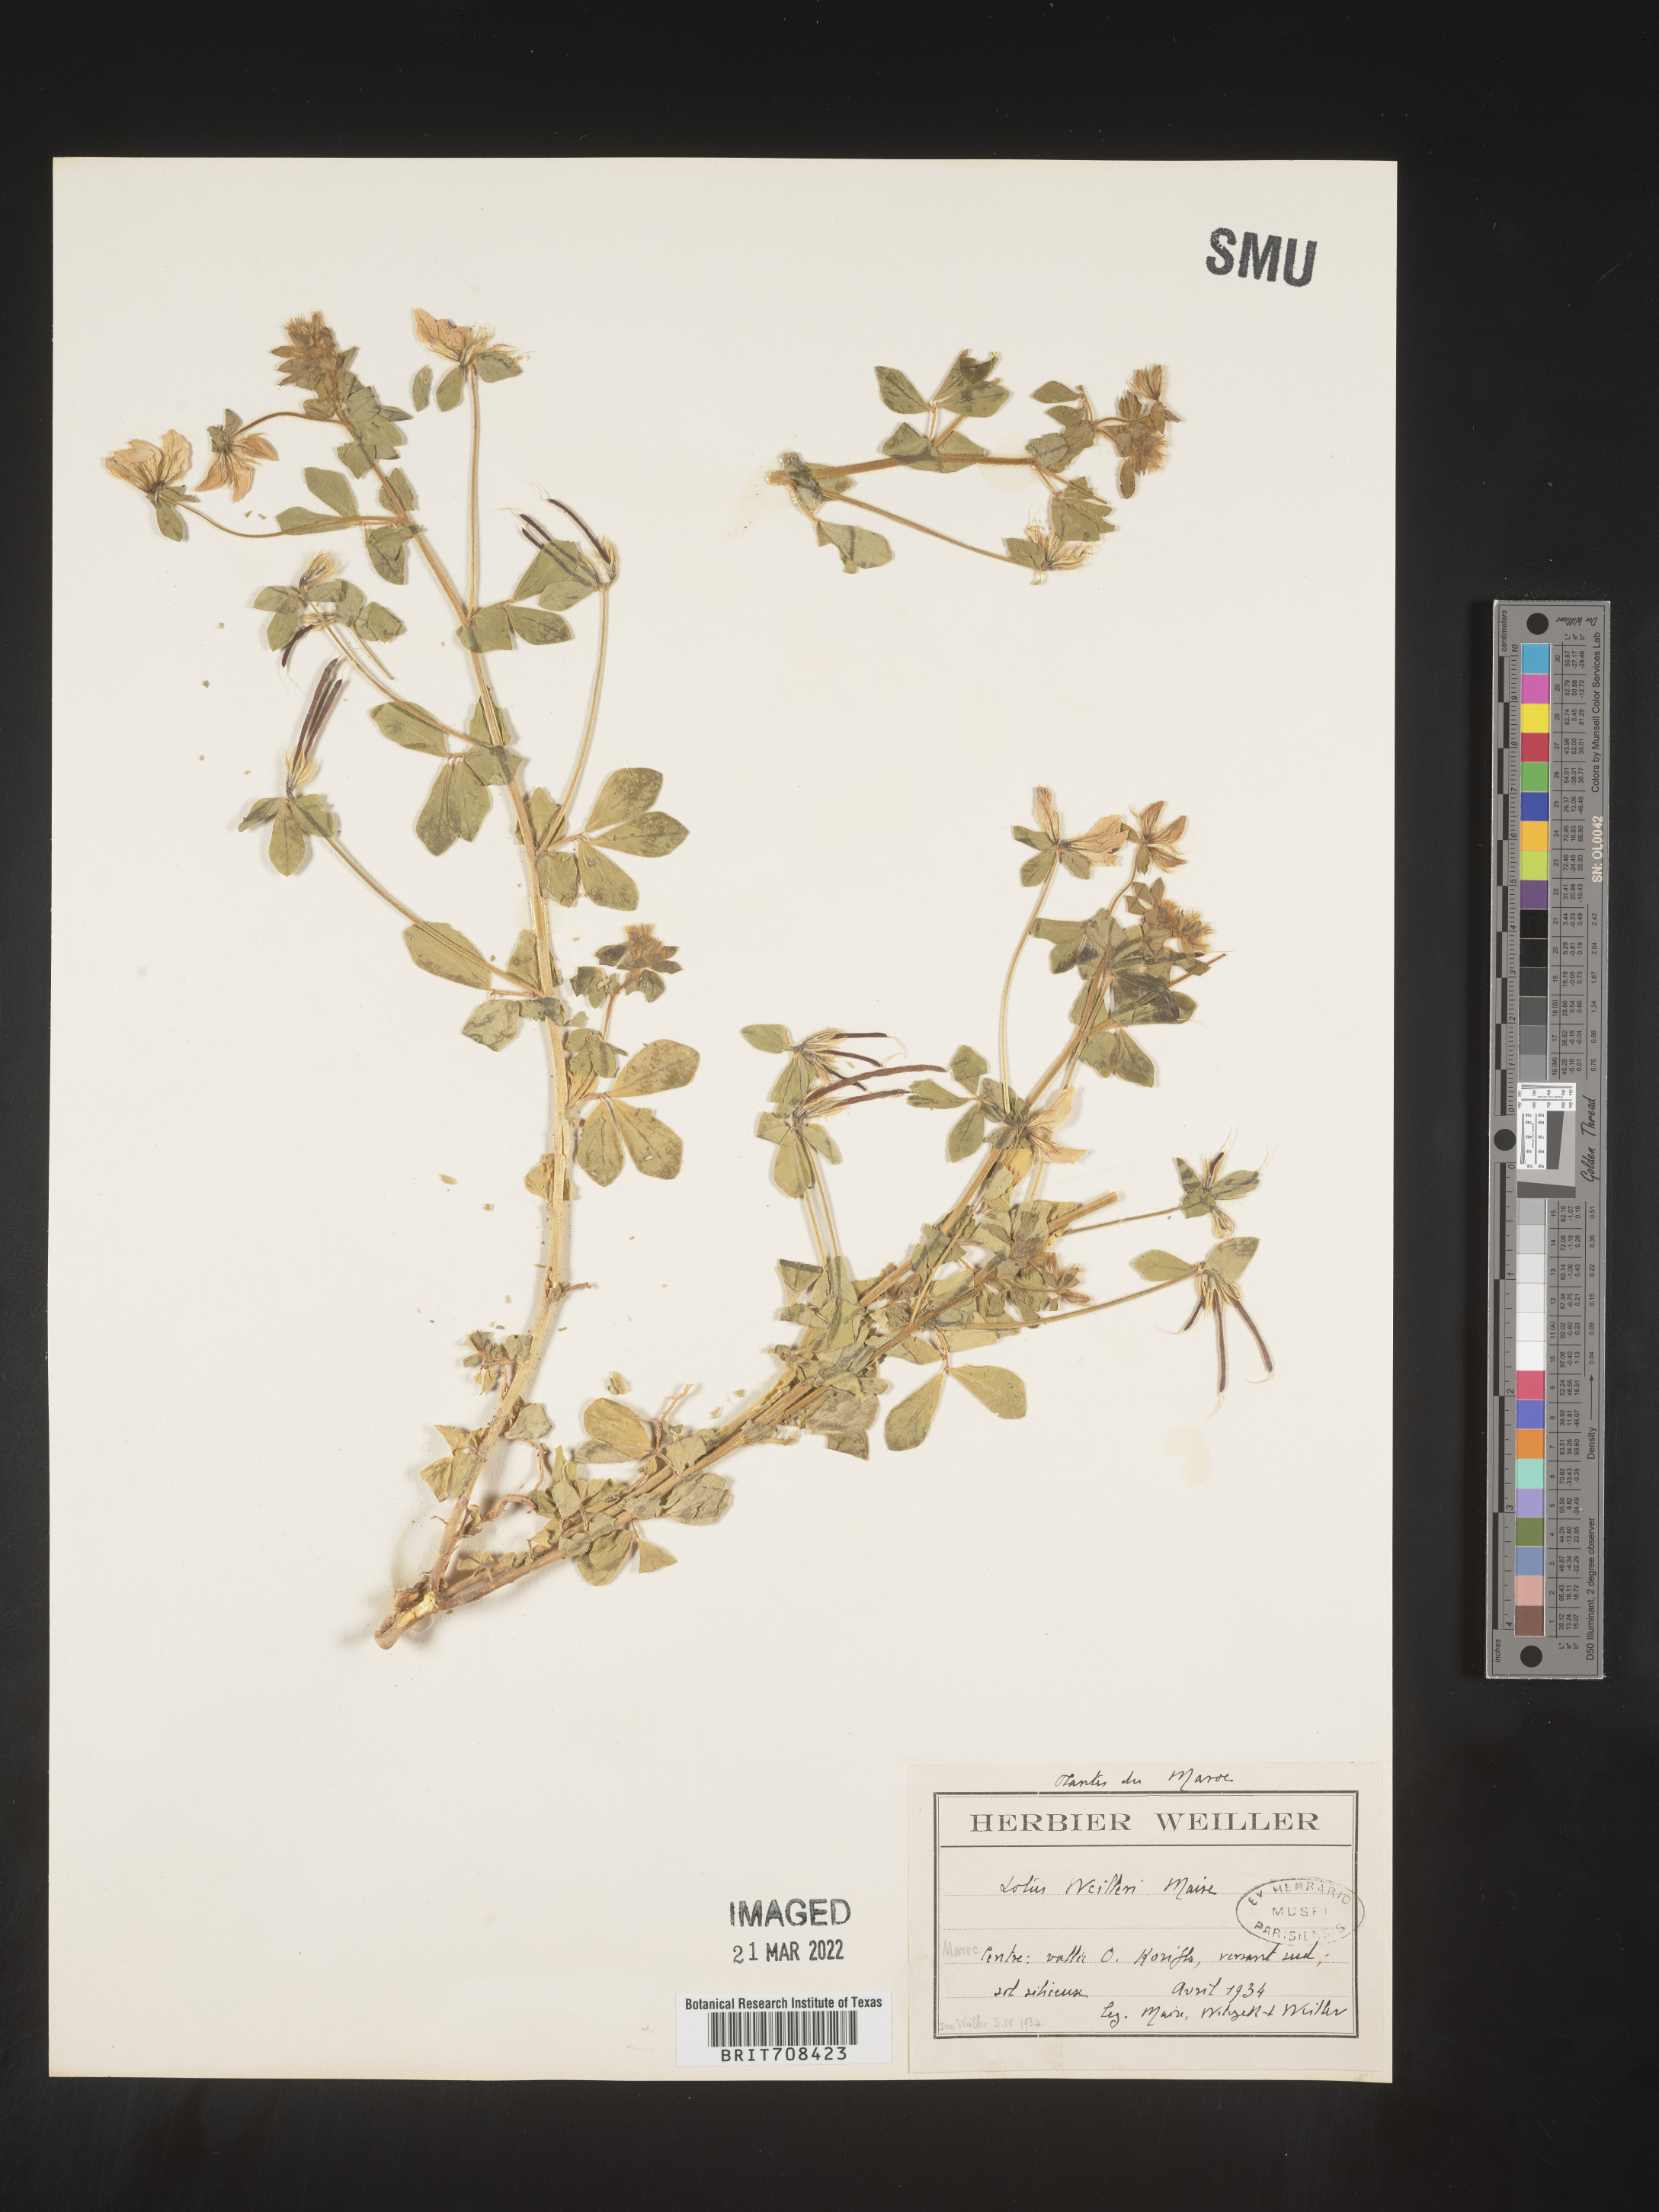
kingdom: Plantae
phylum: Tracheophyta
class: Magnoliopsida
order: Fabales
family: Fabaceae
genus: Lotus
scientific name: Lotus
